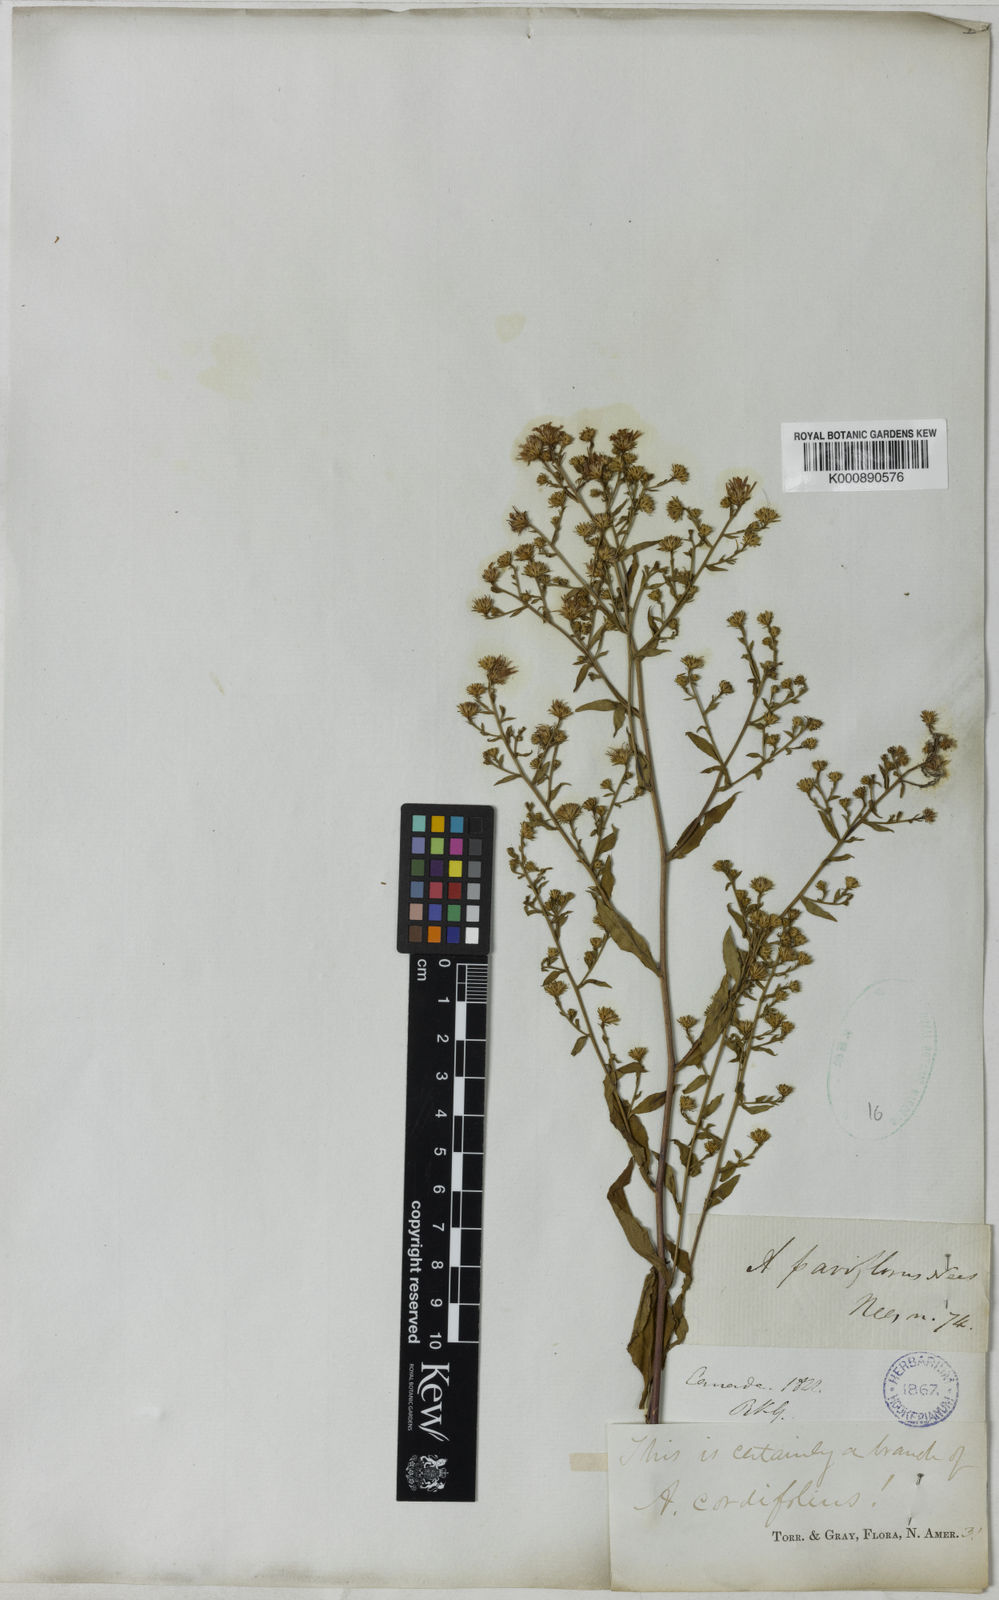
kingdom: Plantae
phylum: Tracheophyta
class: Magnoliopsida
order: Asterales
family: Asteraceae
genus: Symphyotrichum
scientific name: Symphyotrichum cordifolium
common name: Beeweed
